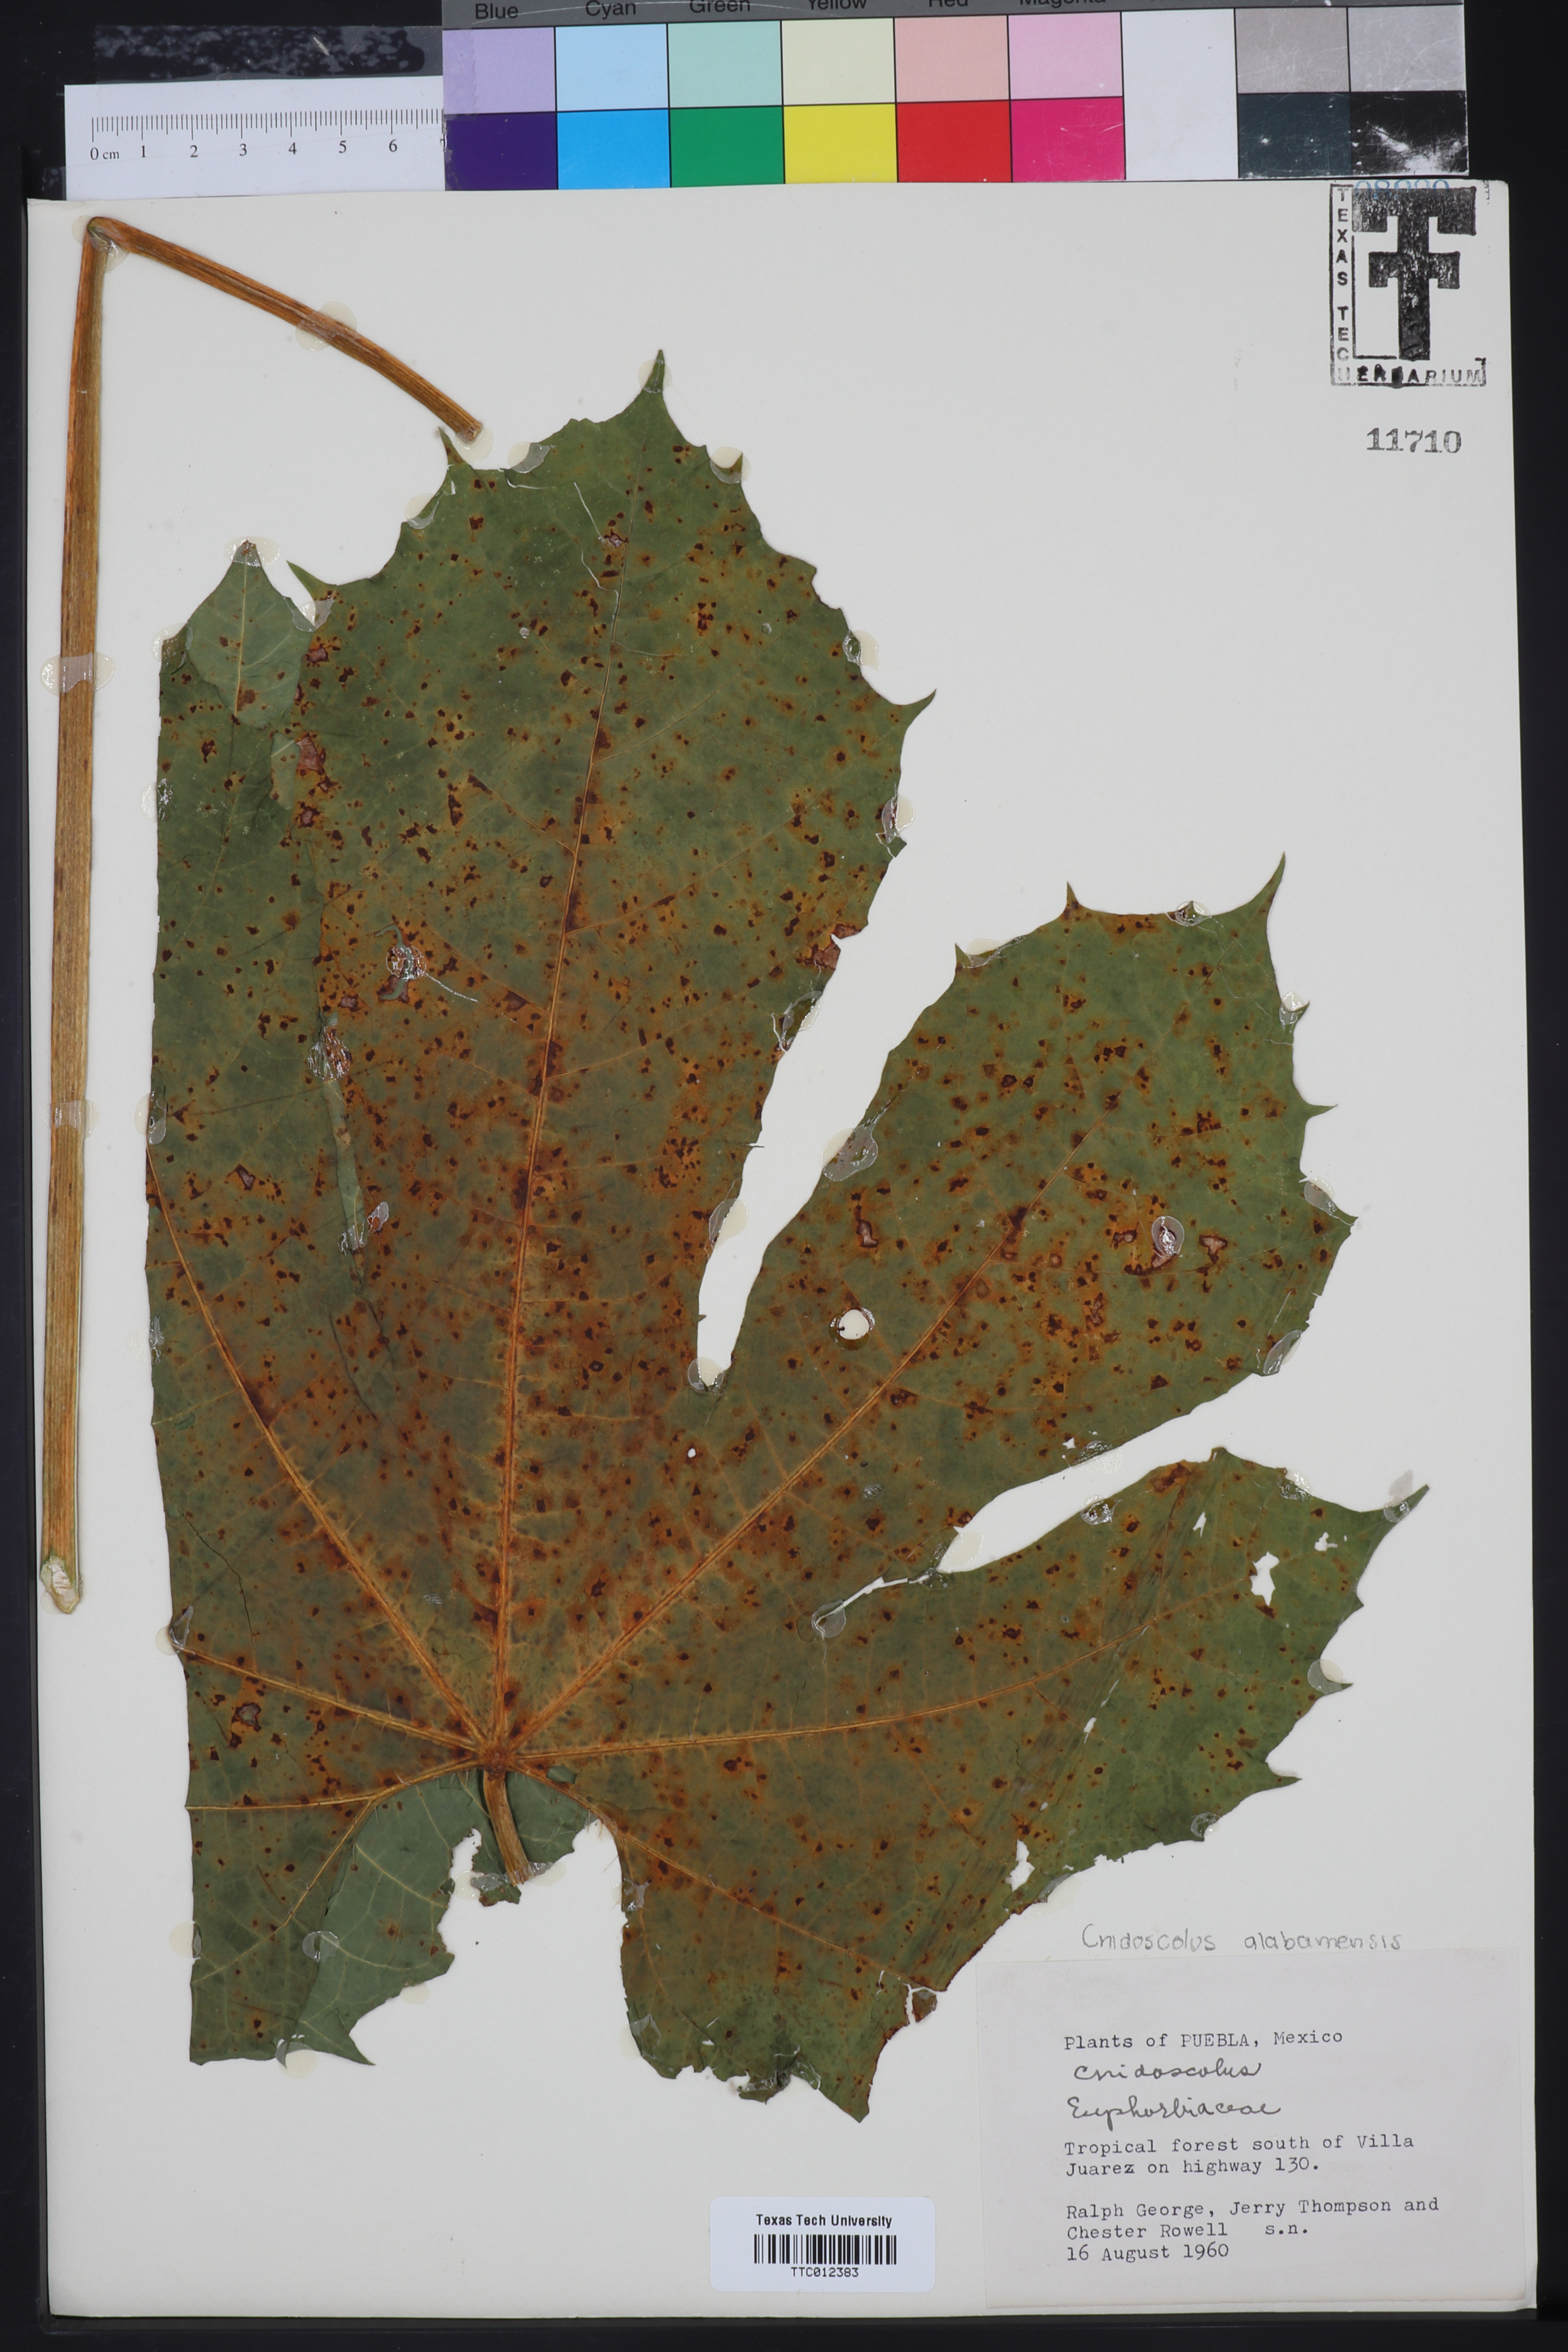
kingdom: Plantae
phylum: Tracheophyta
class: Magnoliopsida
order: Malpighiales
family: Euphorbiaceae
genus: Cnidoscolus
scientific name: Cnidoscolus
